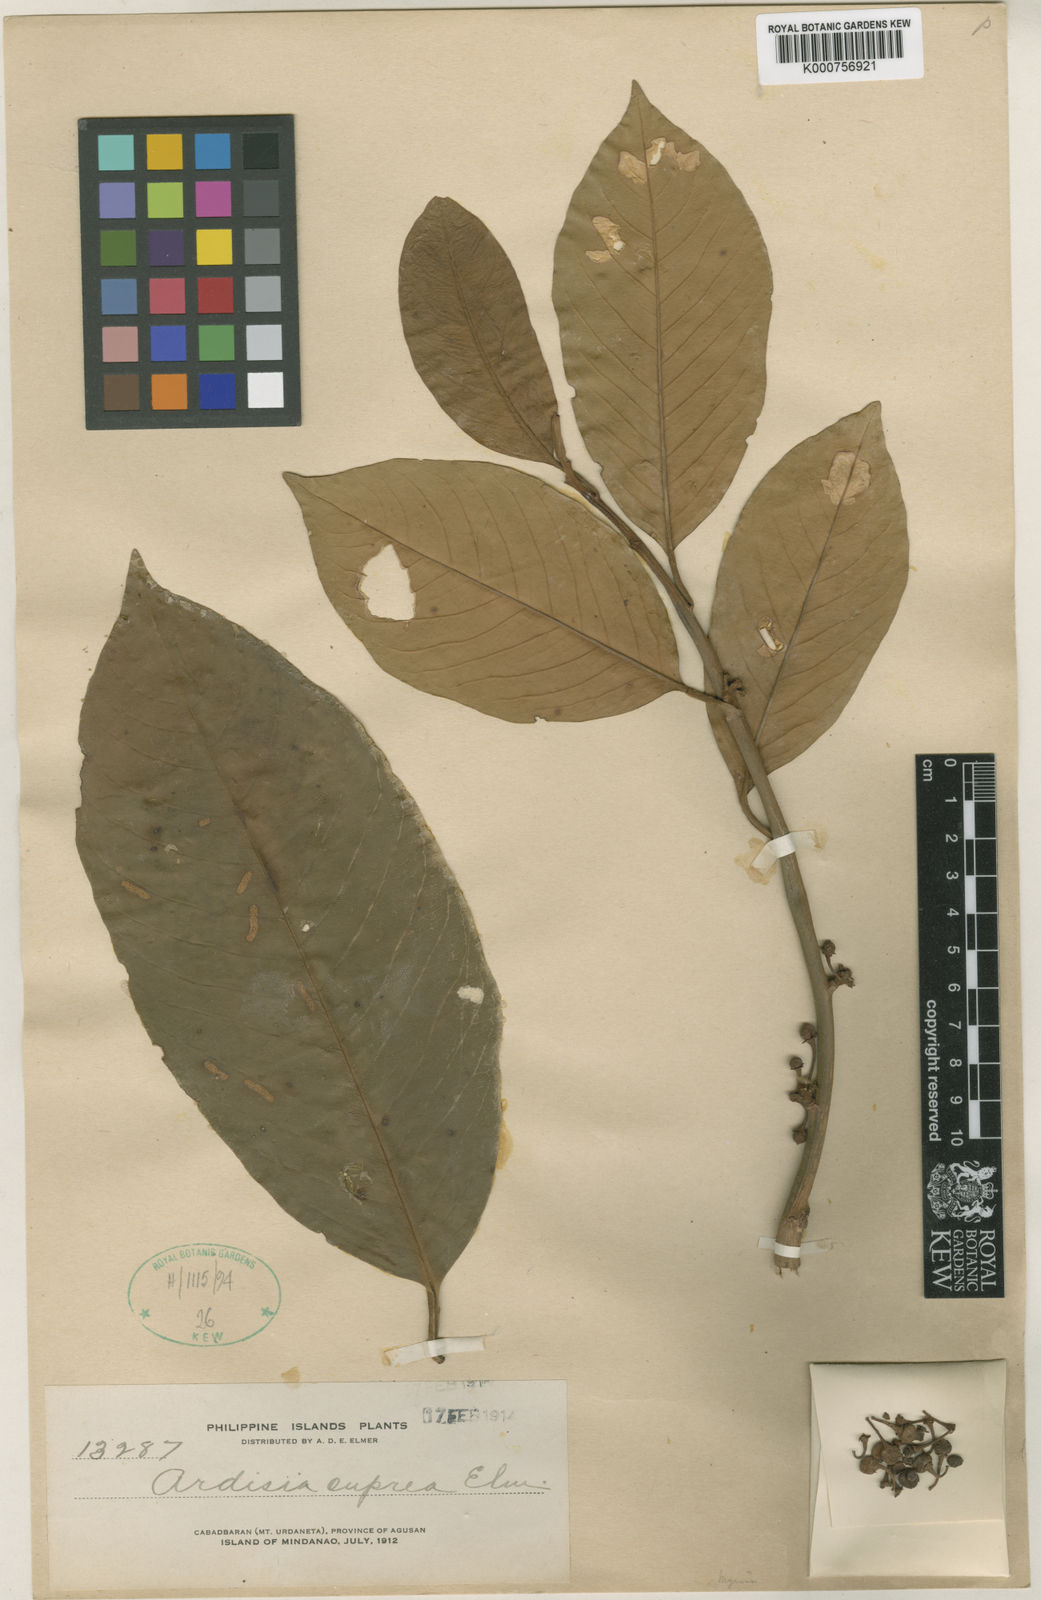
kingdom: Plantae
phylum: Tracheophyta
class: Magnoliopsida
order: Ericales
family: Primulaceae
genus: Ardisia
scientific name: Ardisia tomentosa
